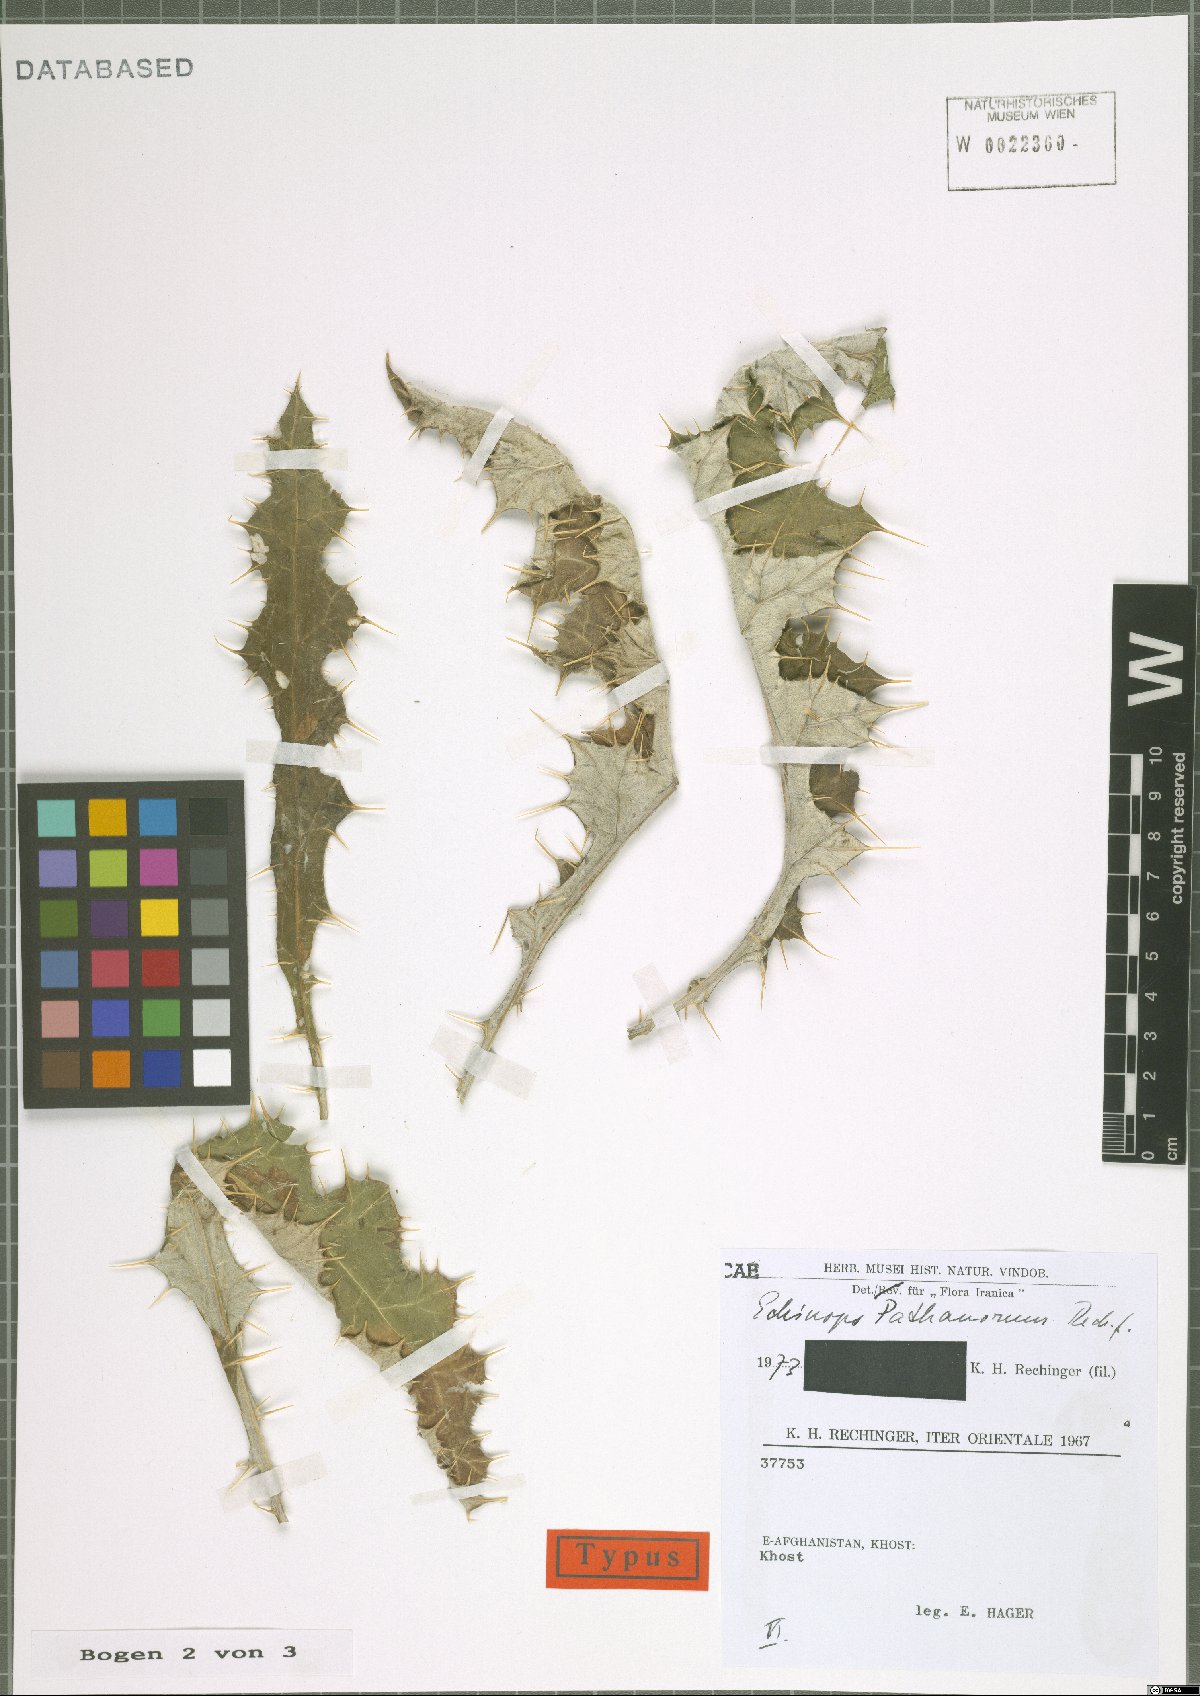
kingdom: Plantae
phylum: Tracheophyta
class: Magnoliopsida
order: Asterales
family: Asteraceae
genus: Echinops
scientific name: Echinops pathanorum
